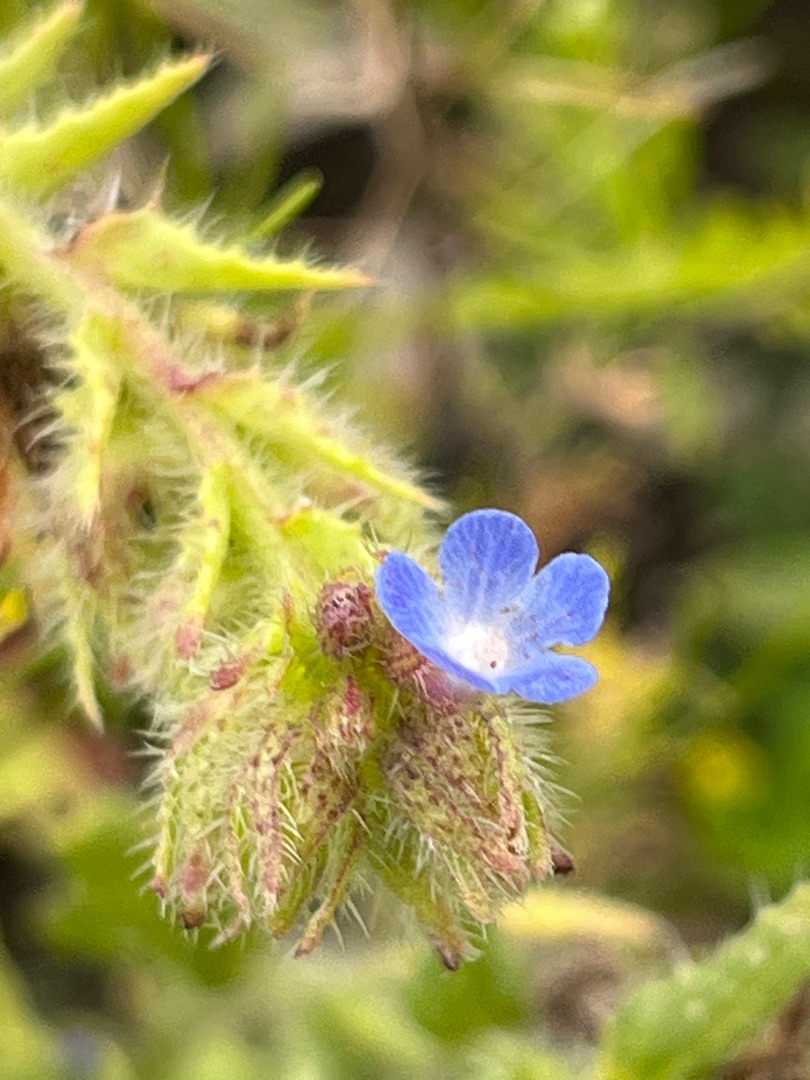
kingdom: Plantae
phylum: Tracheophyta
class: Magnoliopsida
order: Boraginales
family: Boraginaceae
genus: Lycopsis
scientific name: Lycopsis arvensis
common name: Krumhals
